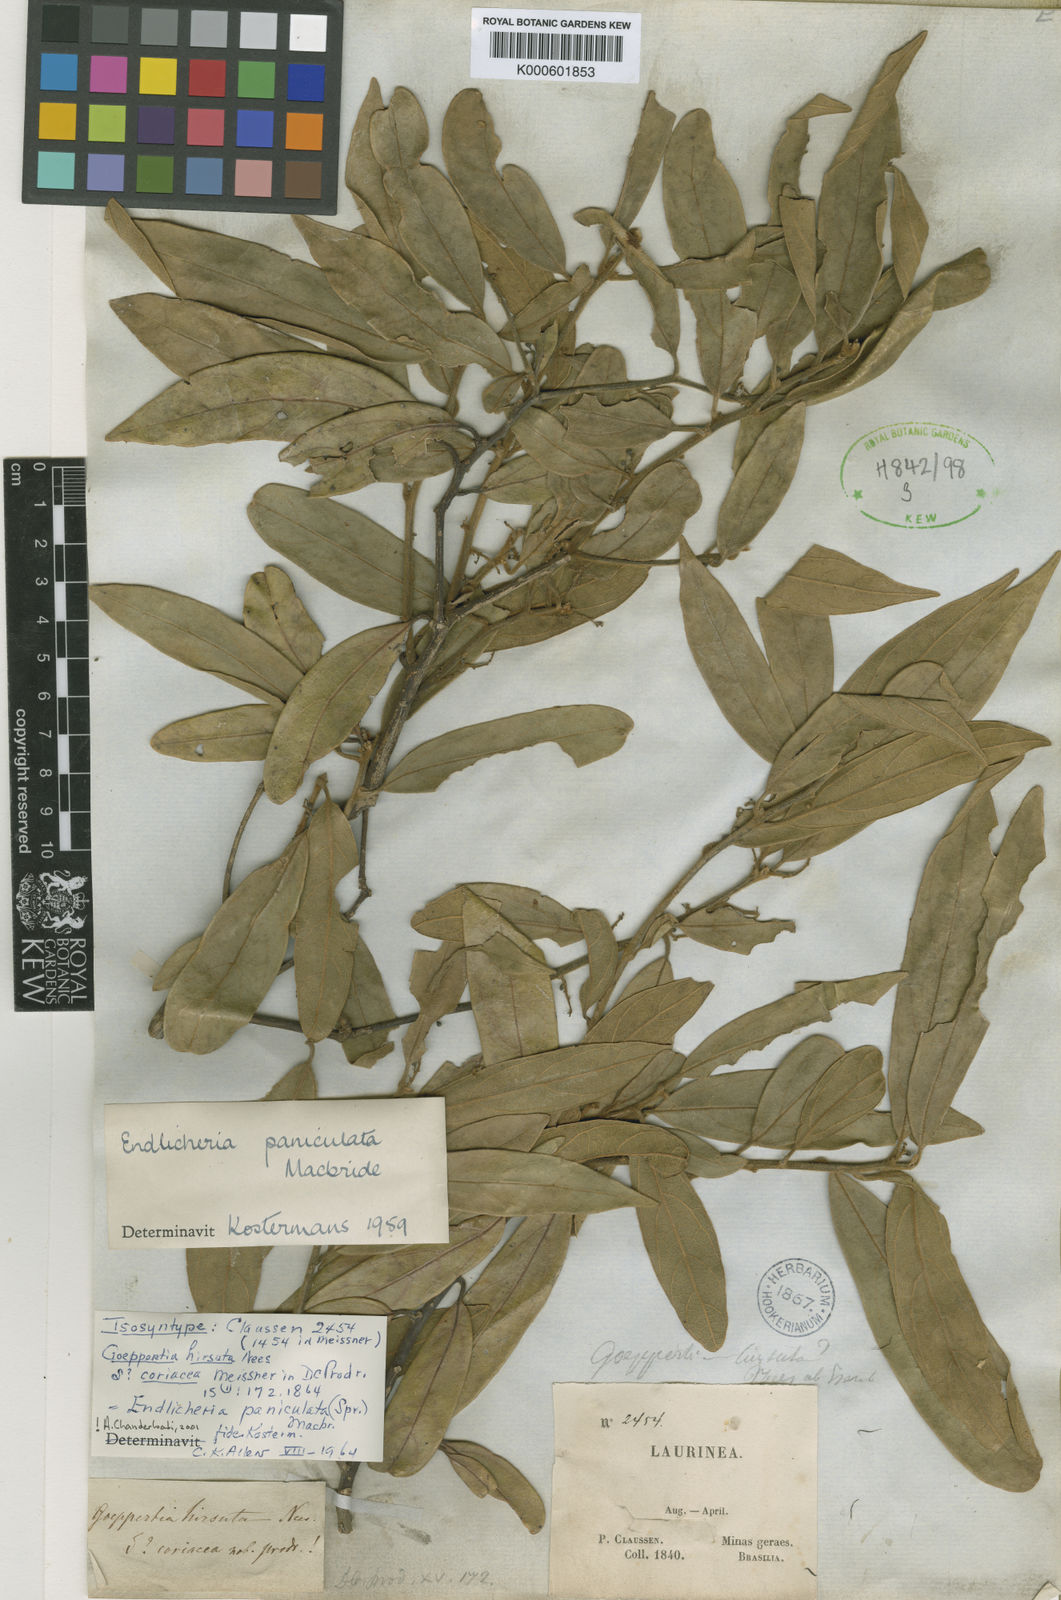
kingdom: Plantae
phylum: Tracheophyta
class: Magnoliopsida
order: Laurales
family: Lauraceae
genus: Endlicheria
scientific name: Endlicheria paniculata
